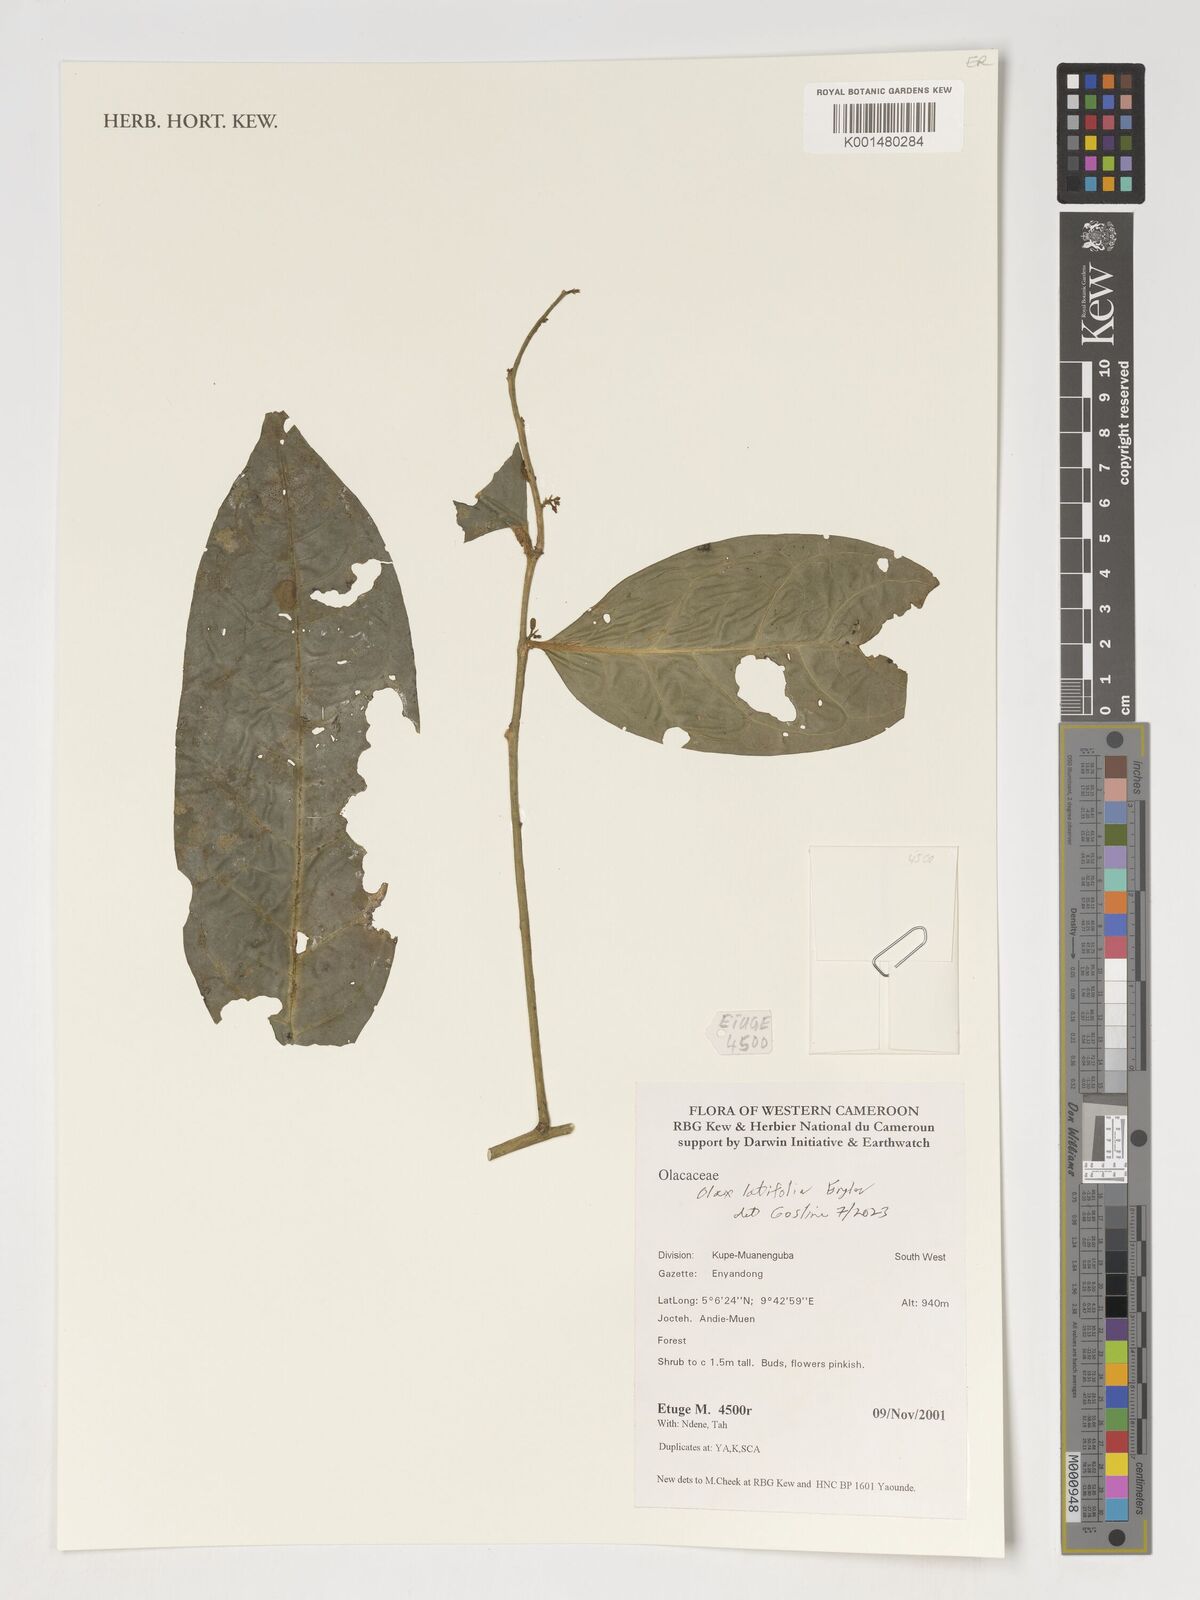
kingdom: Plantae
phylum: Tracheophyta
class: Magnoliopsida
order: Santalales
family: Olacaceae
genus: Olax
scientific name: Olax latifolia
